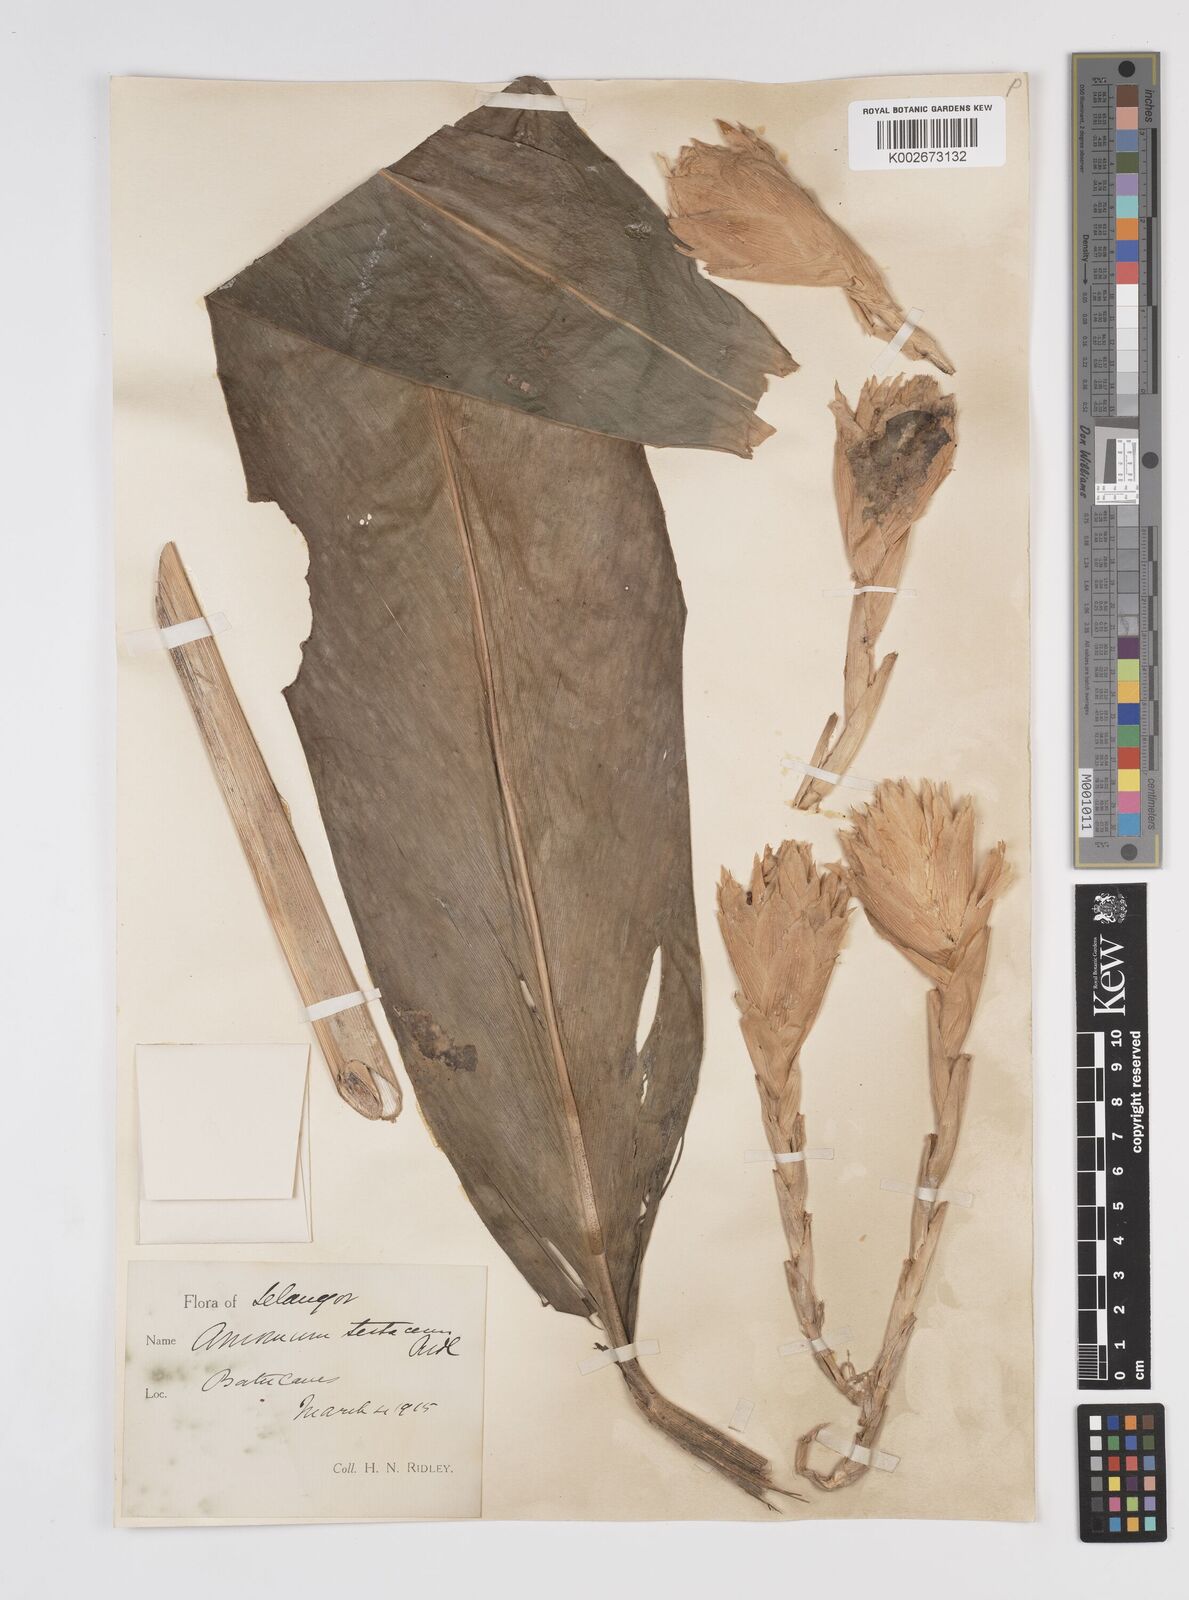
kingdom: Plantae
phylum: Tracheophyta
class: Liliopsida
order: Zingiberales
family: Zingiberaceae
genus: Wurfbainia
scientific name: Wurfbainia testacea
